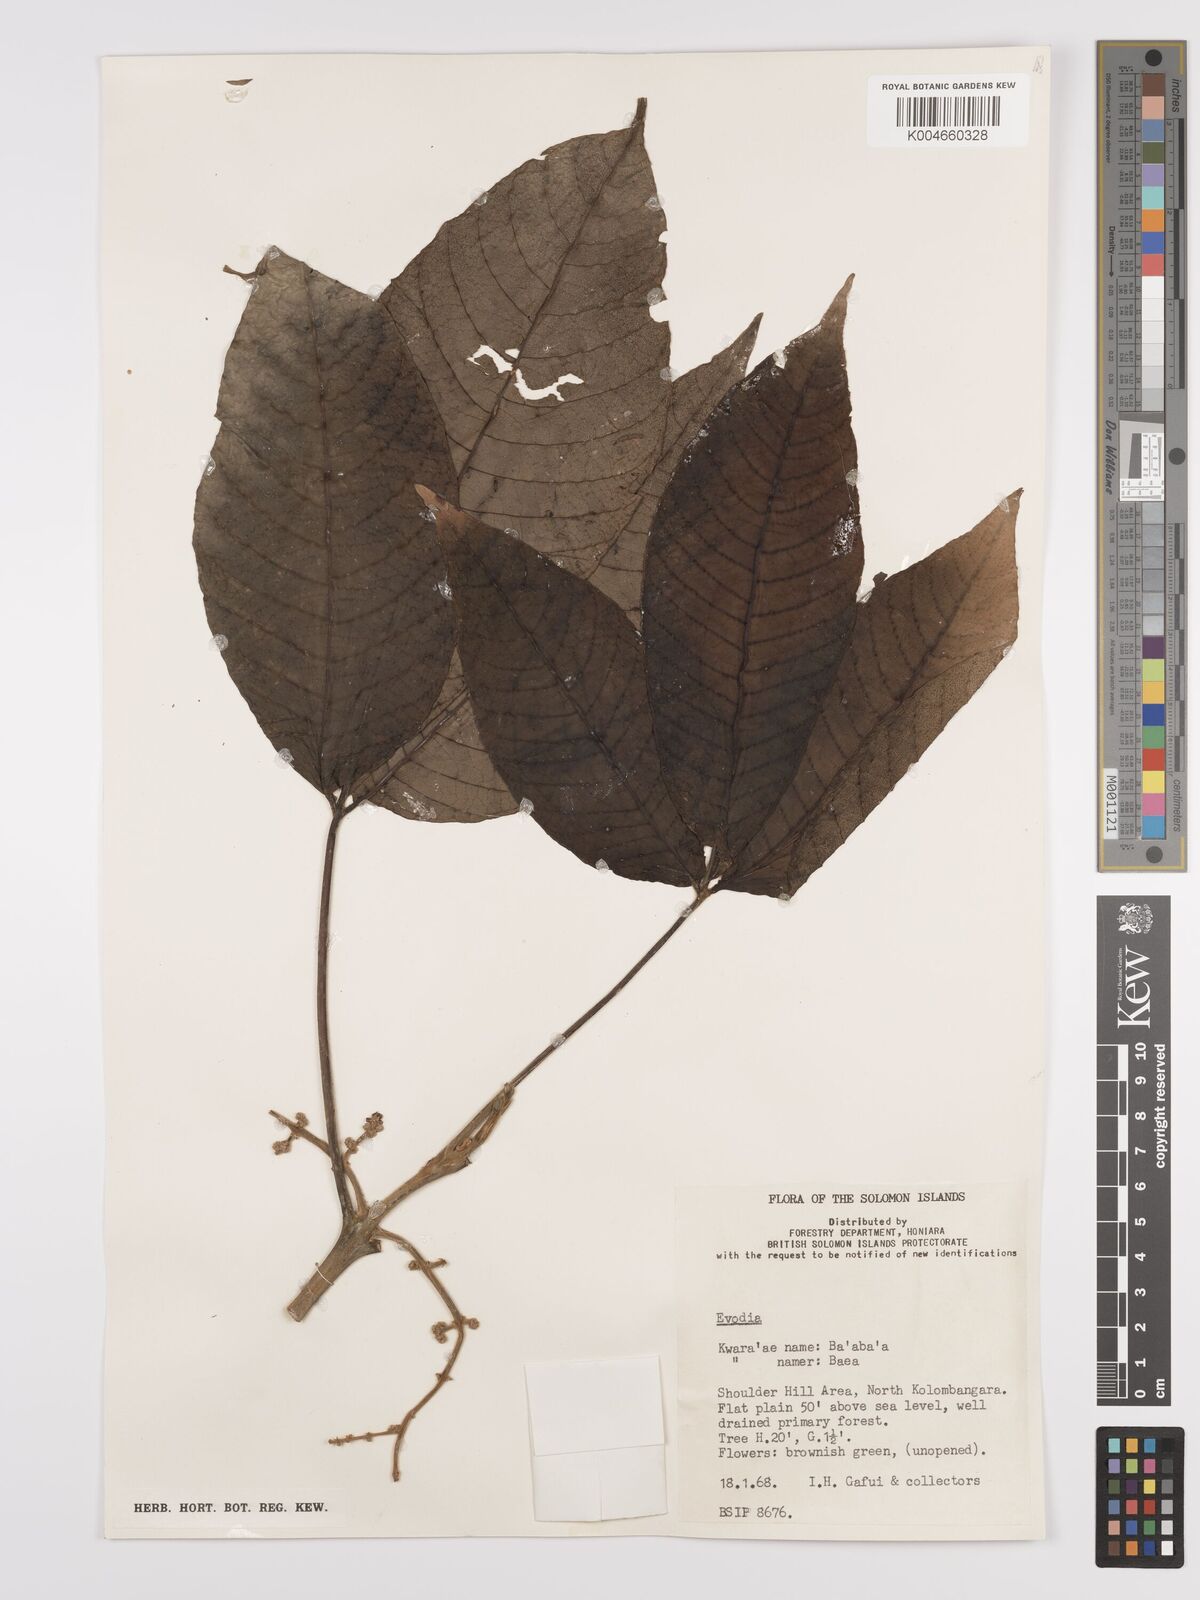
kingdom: Plantae
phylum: Tracheophyta
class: Magnoliopsida
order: Sapindales
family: Rutaceae
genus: Euodia
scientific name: Euodia
